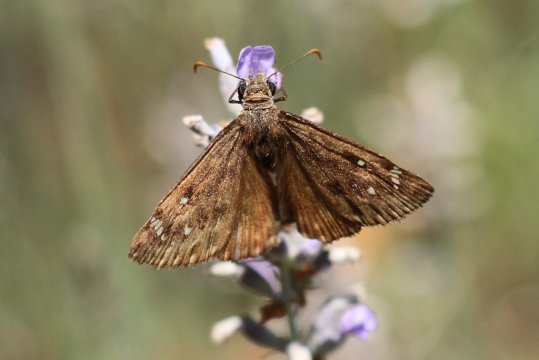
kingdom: Animalia
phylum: Arthropoda
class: Insecta
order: Lepidoptera
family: Hesperiidae
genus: Gesta
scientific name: Gesta
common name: Horace's Duskywing
